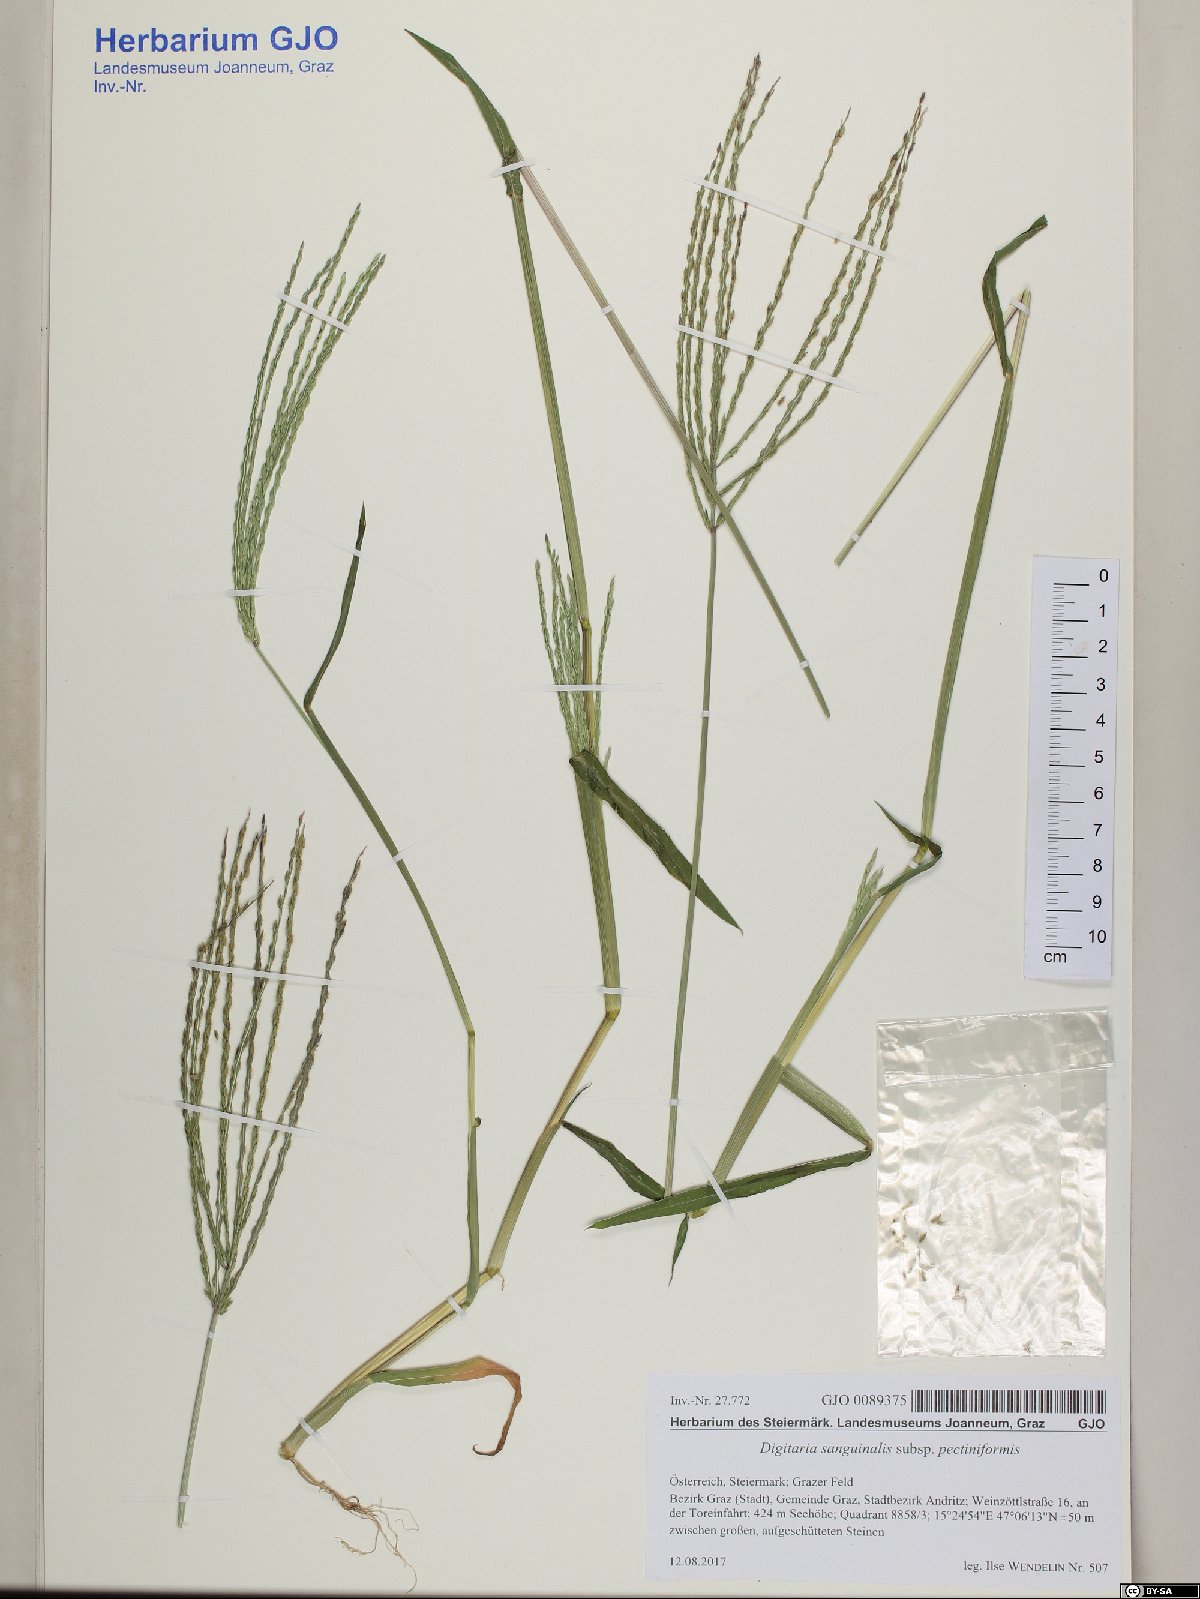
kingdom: Plantae
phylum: Tracheophyta
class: Liliopsida
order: Poales
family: Poaceae
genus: Digitaria
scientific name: Digitaria sanguinalis
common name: Hairy crabgrass
